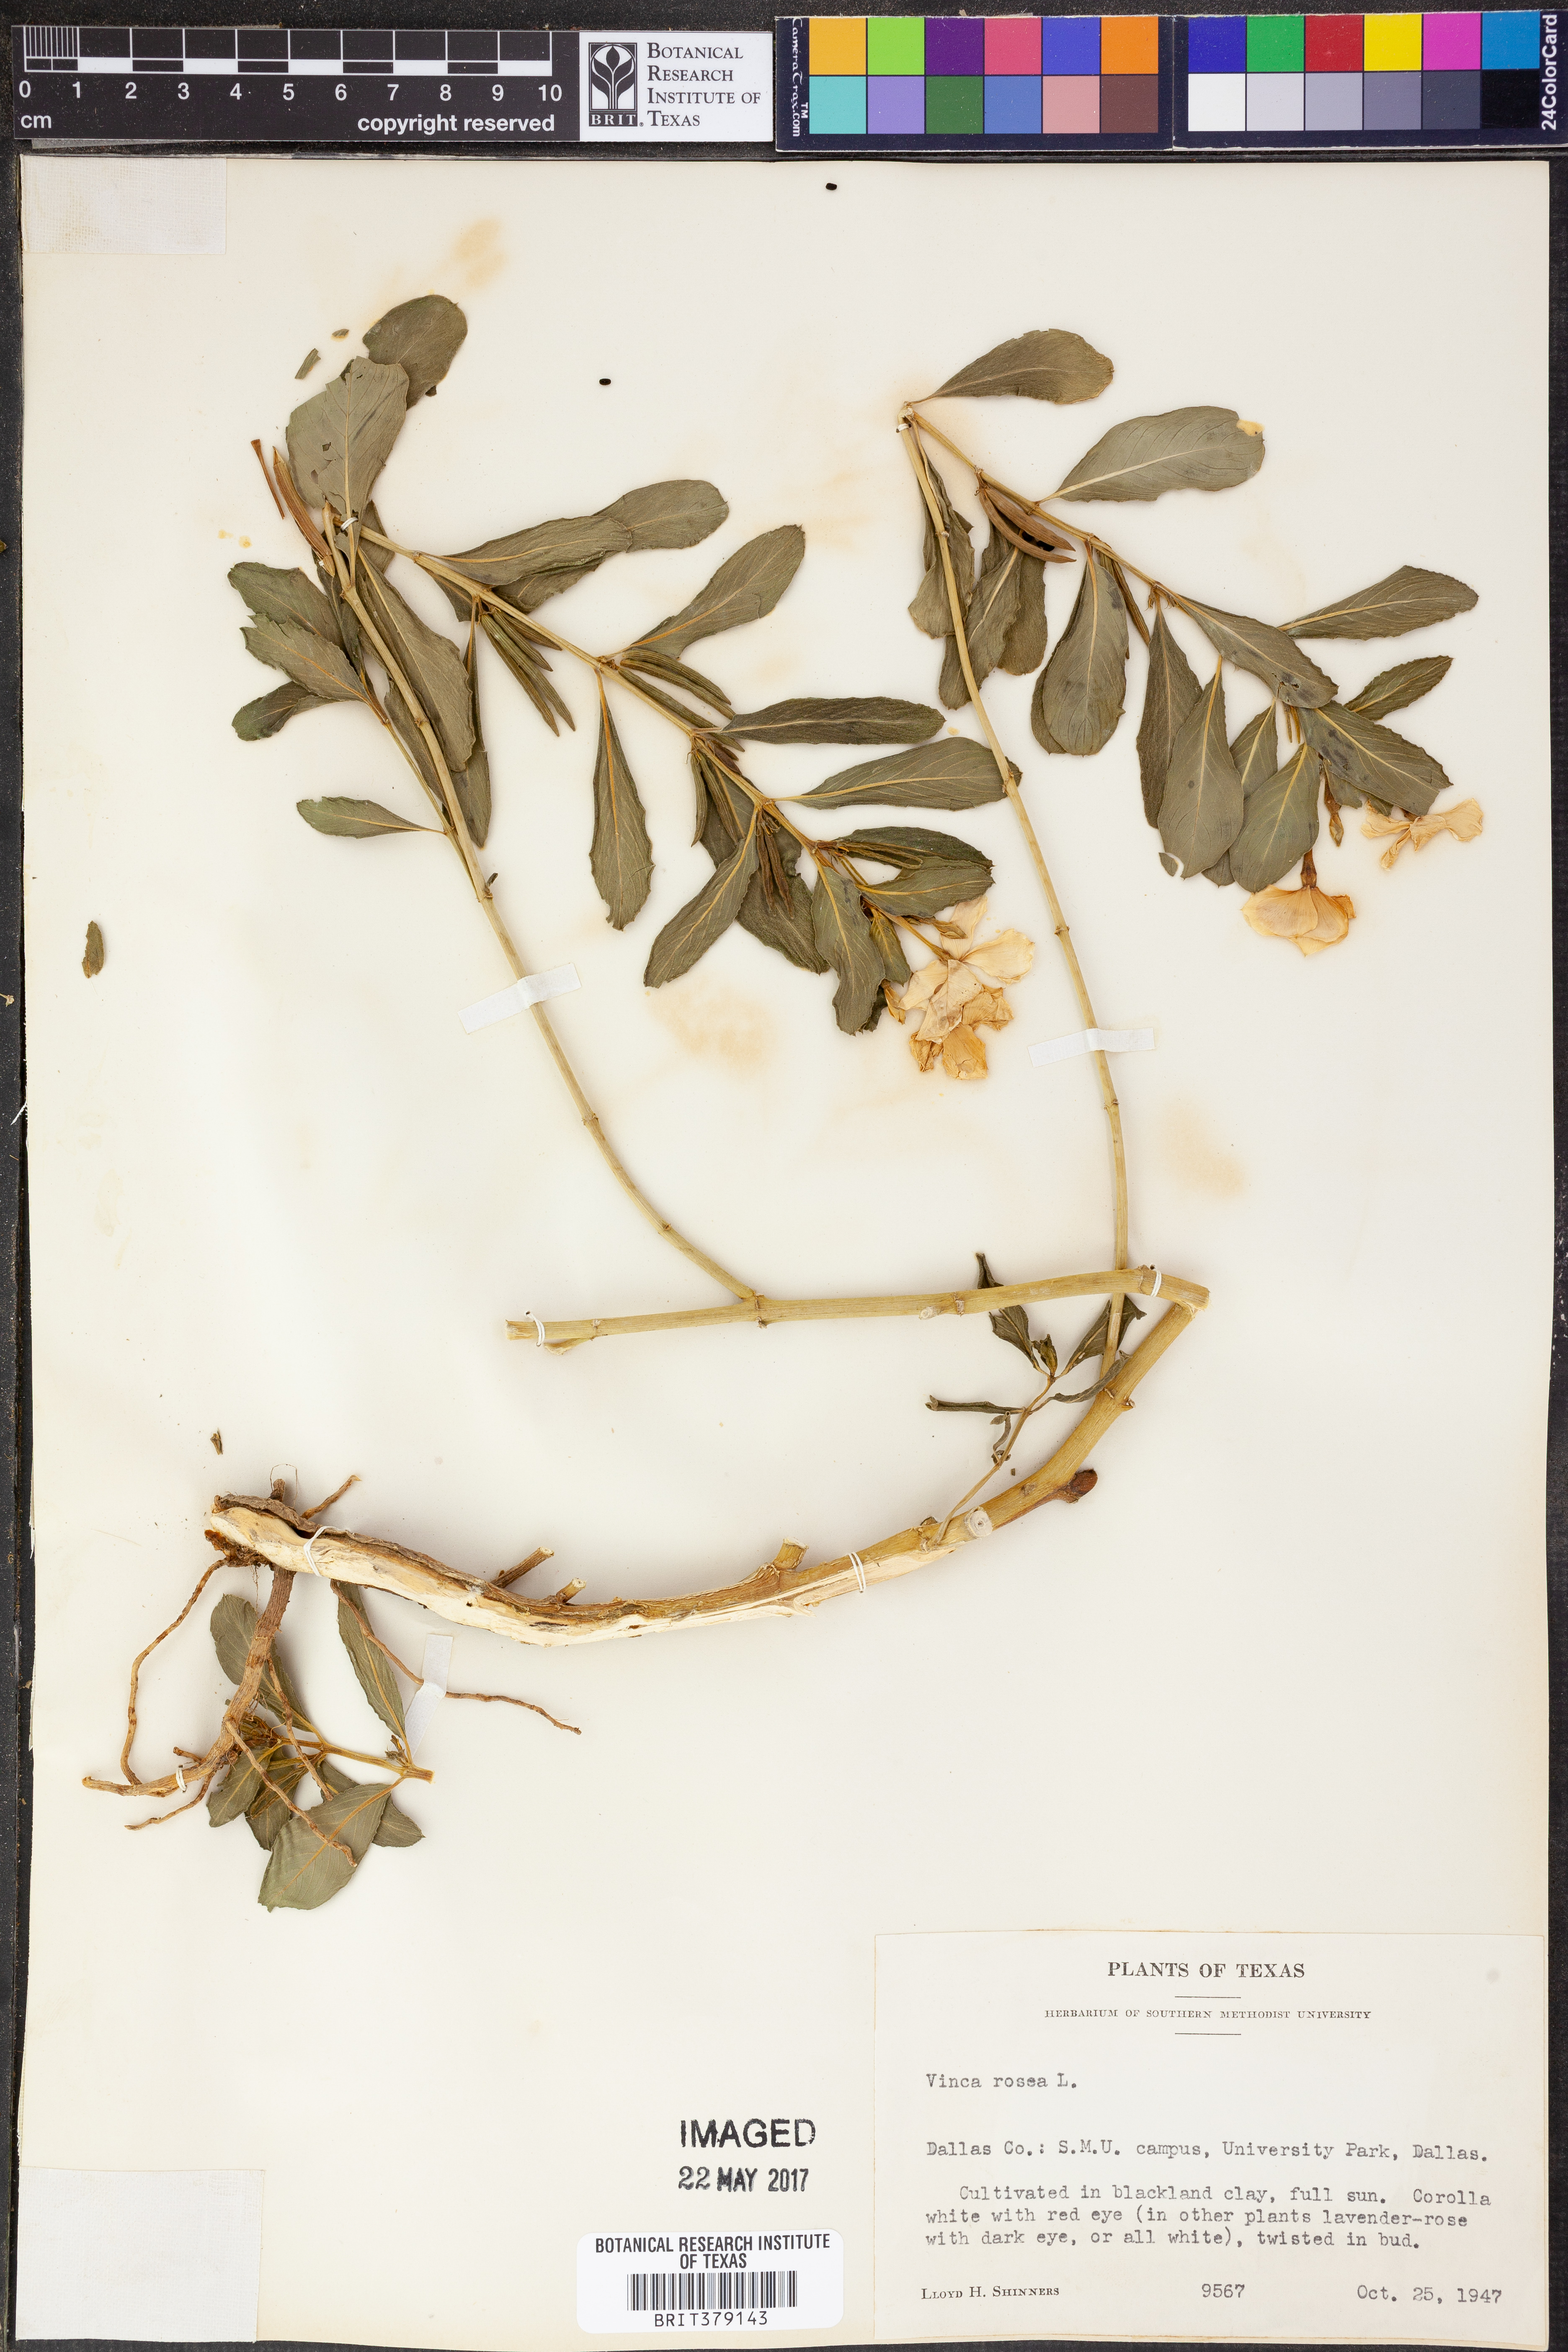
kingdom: Plantae
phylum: Tracheophyta
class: Magnoliopsida
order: Gentianales
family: Apocynaceae
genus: Catharanthus
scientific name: Catharanthus roseus
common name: Madagascar periwinkle
